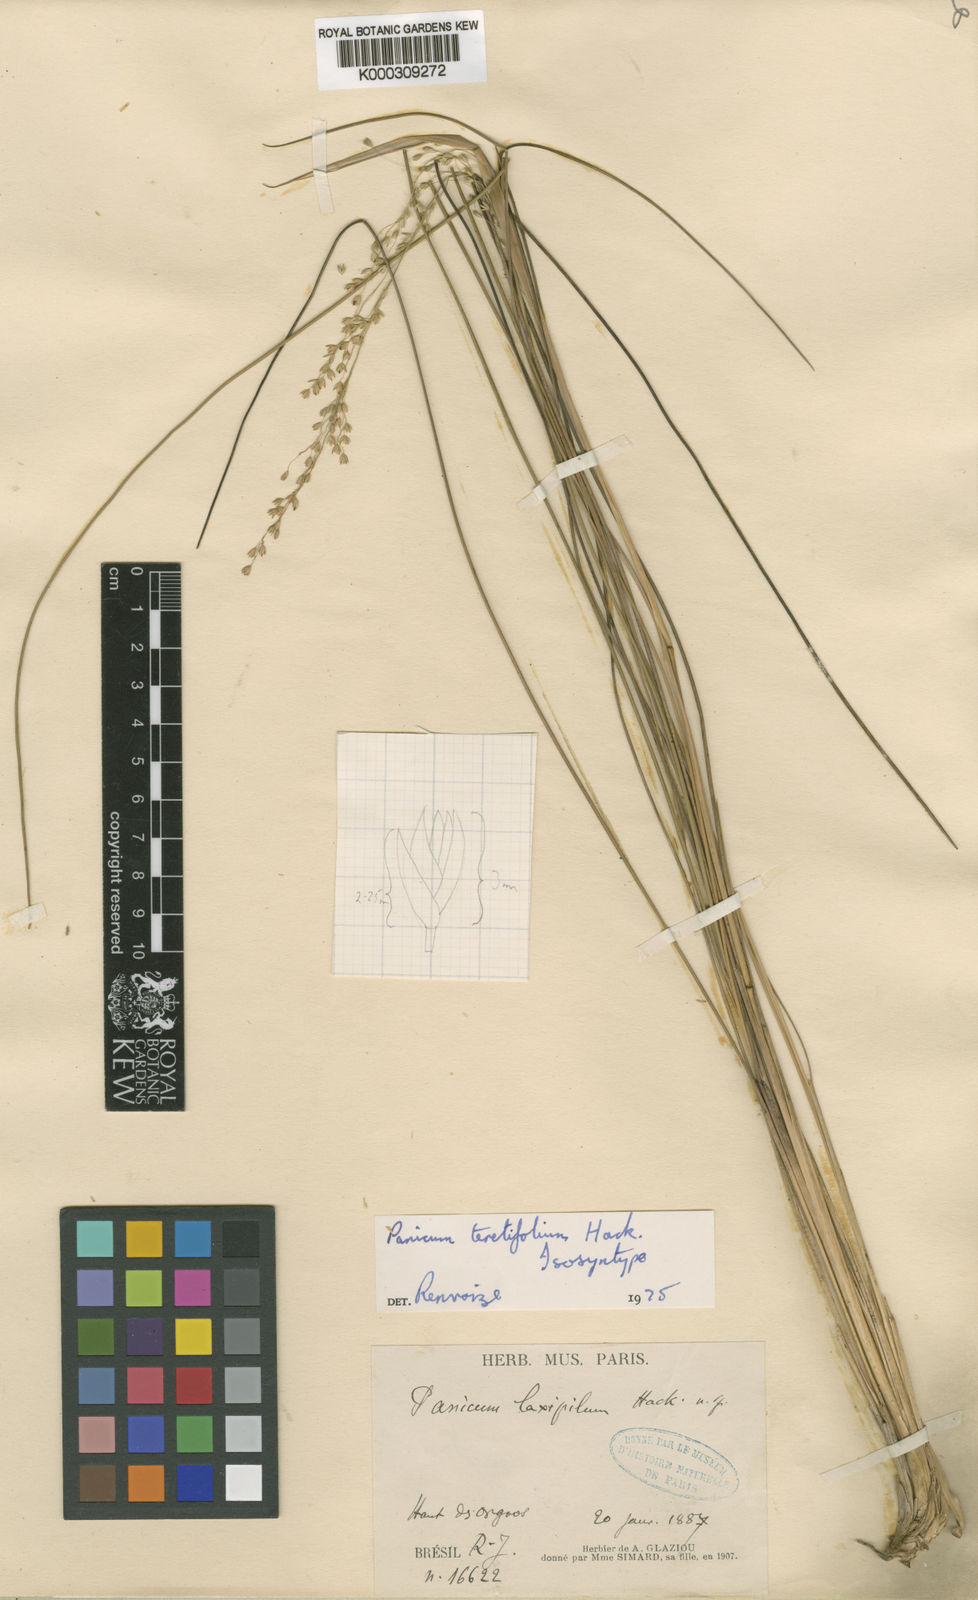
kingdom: Plantae
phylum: Tracheophyta
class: Liliopsida
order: Poales
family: Poaceae
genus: Renvoizea
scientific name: Renvoizea teretifolia
